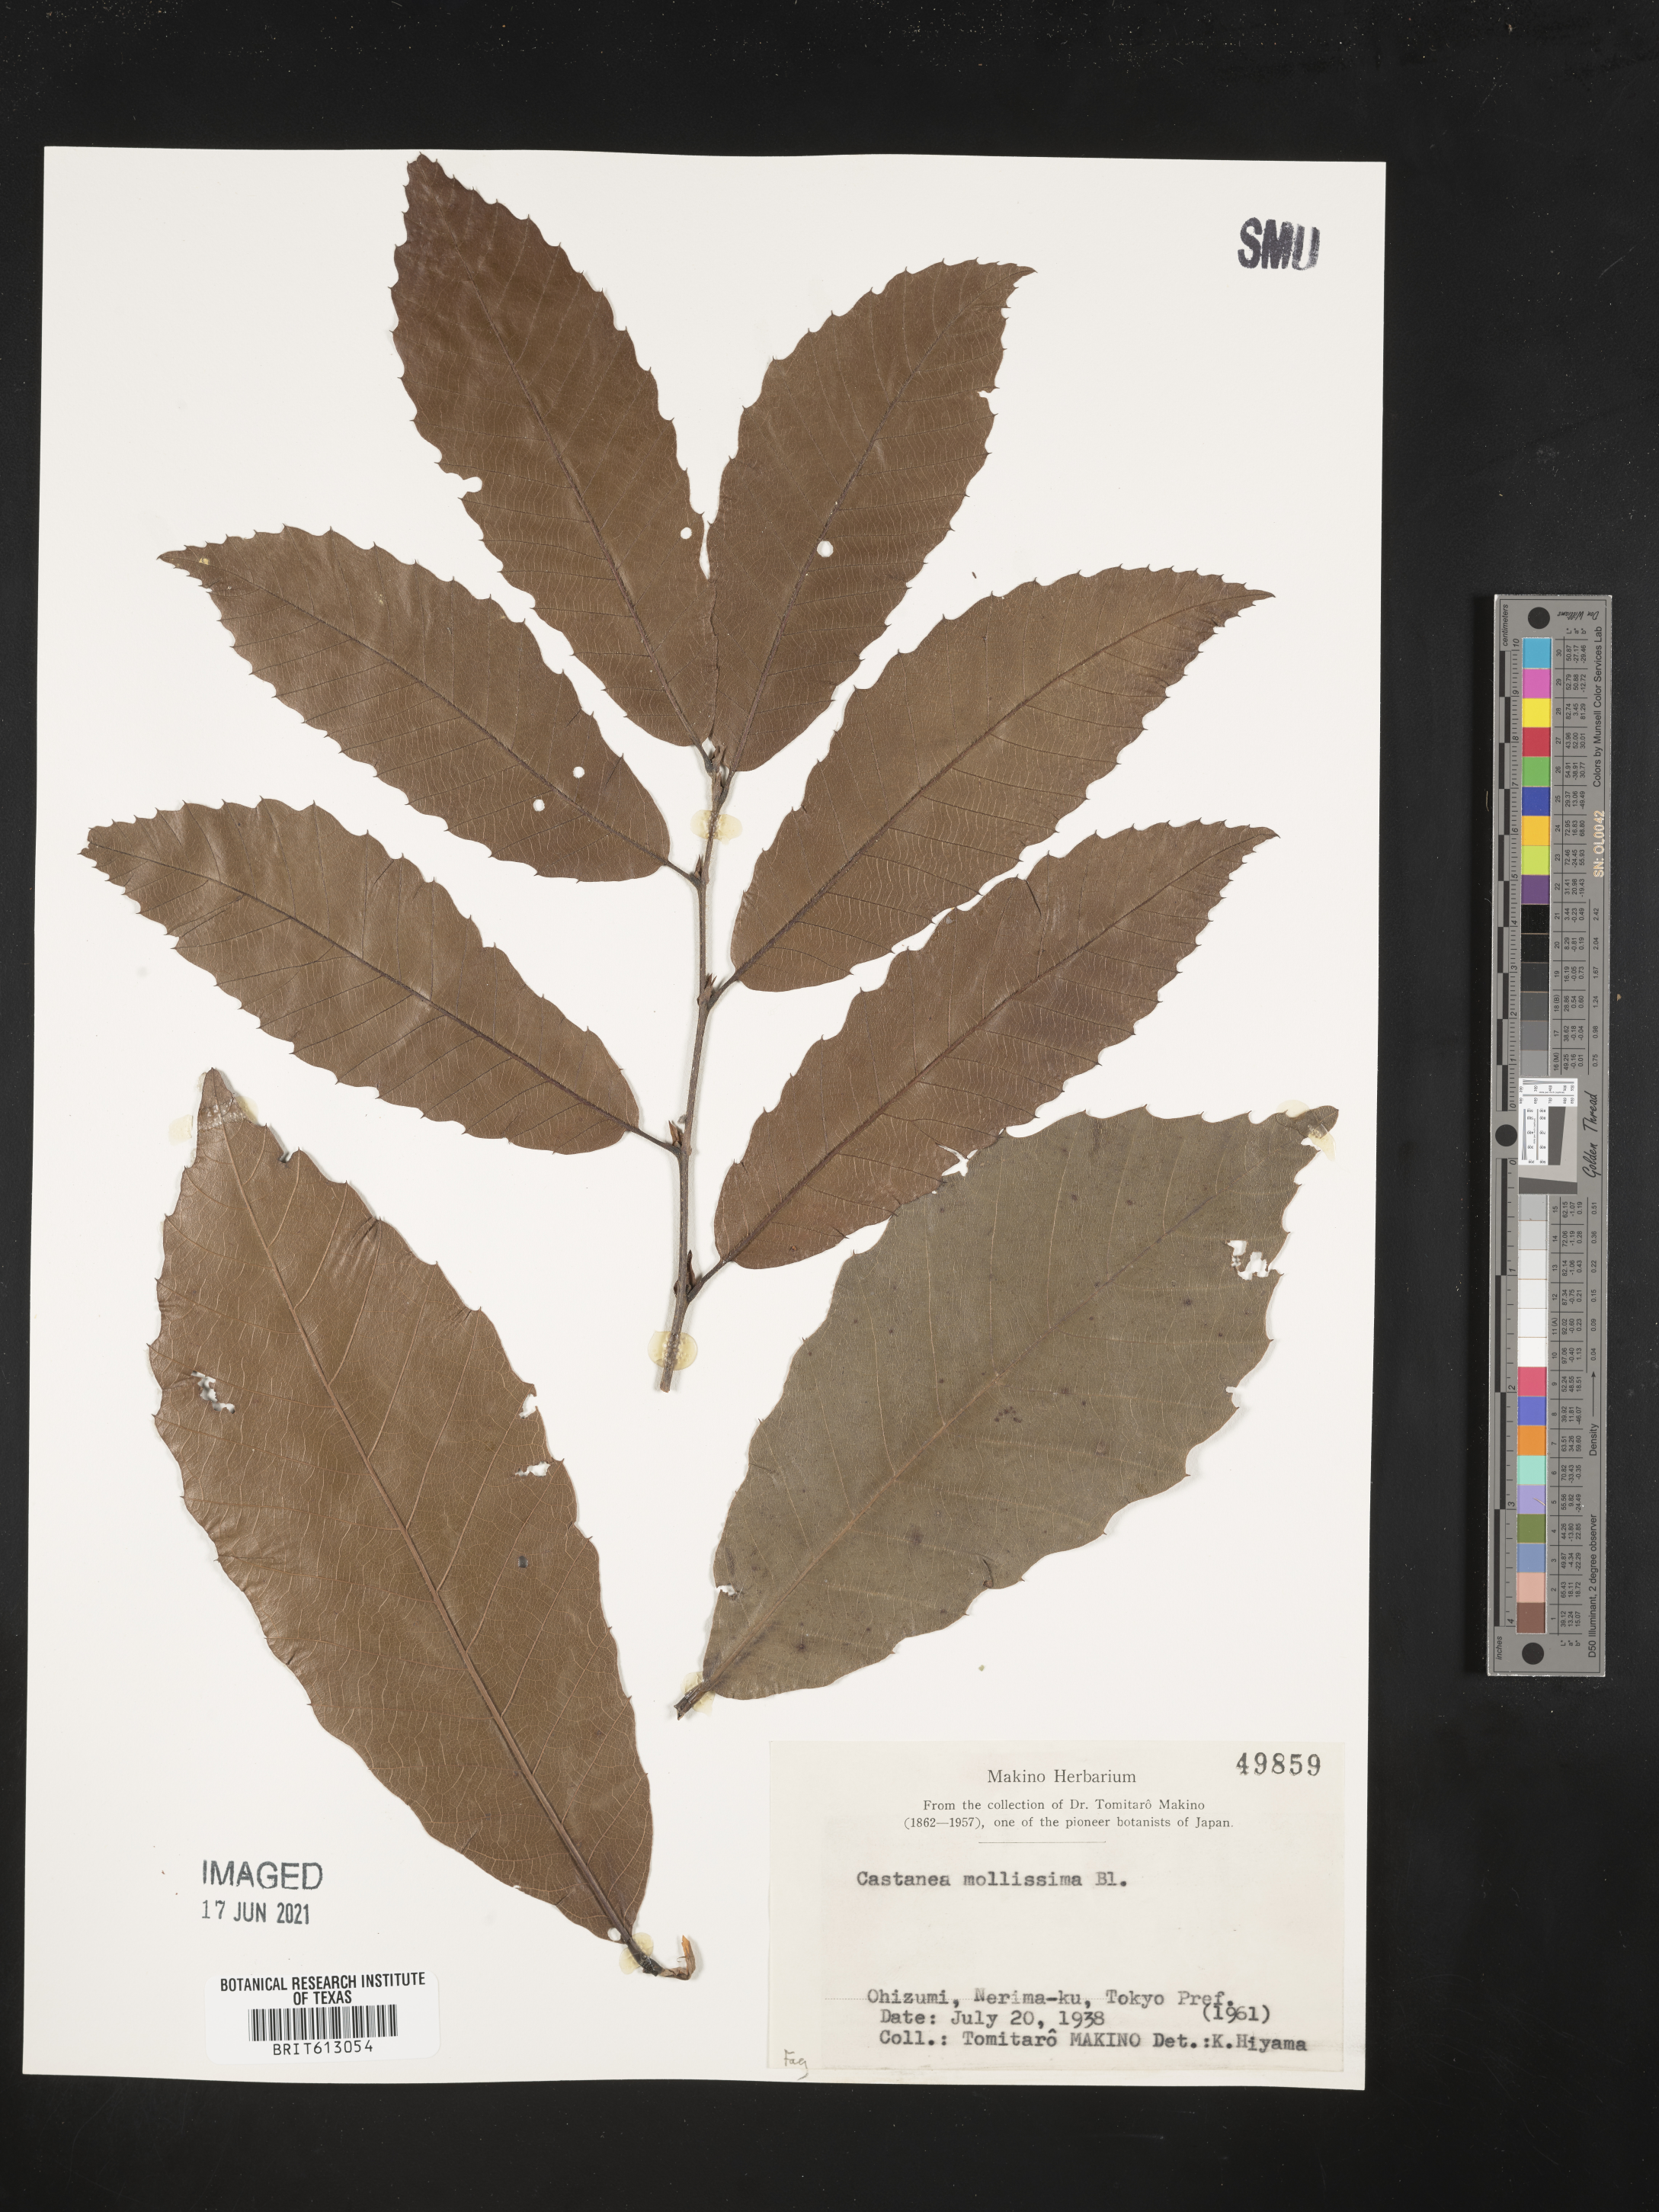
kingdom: Plantae
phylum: Tracheophyta
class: Magnoliopsida
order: Fagales
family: Fagaceae
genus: Castanea
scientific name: Castanea mollissima
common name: Chinese chestnut
